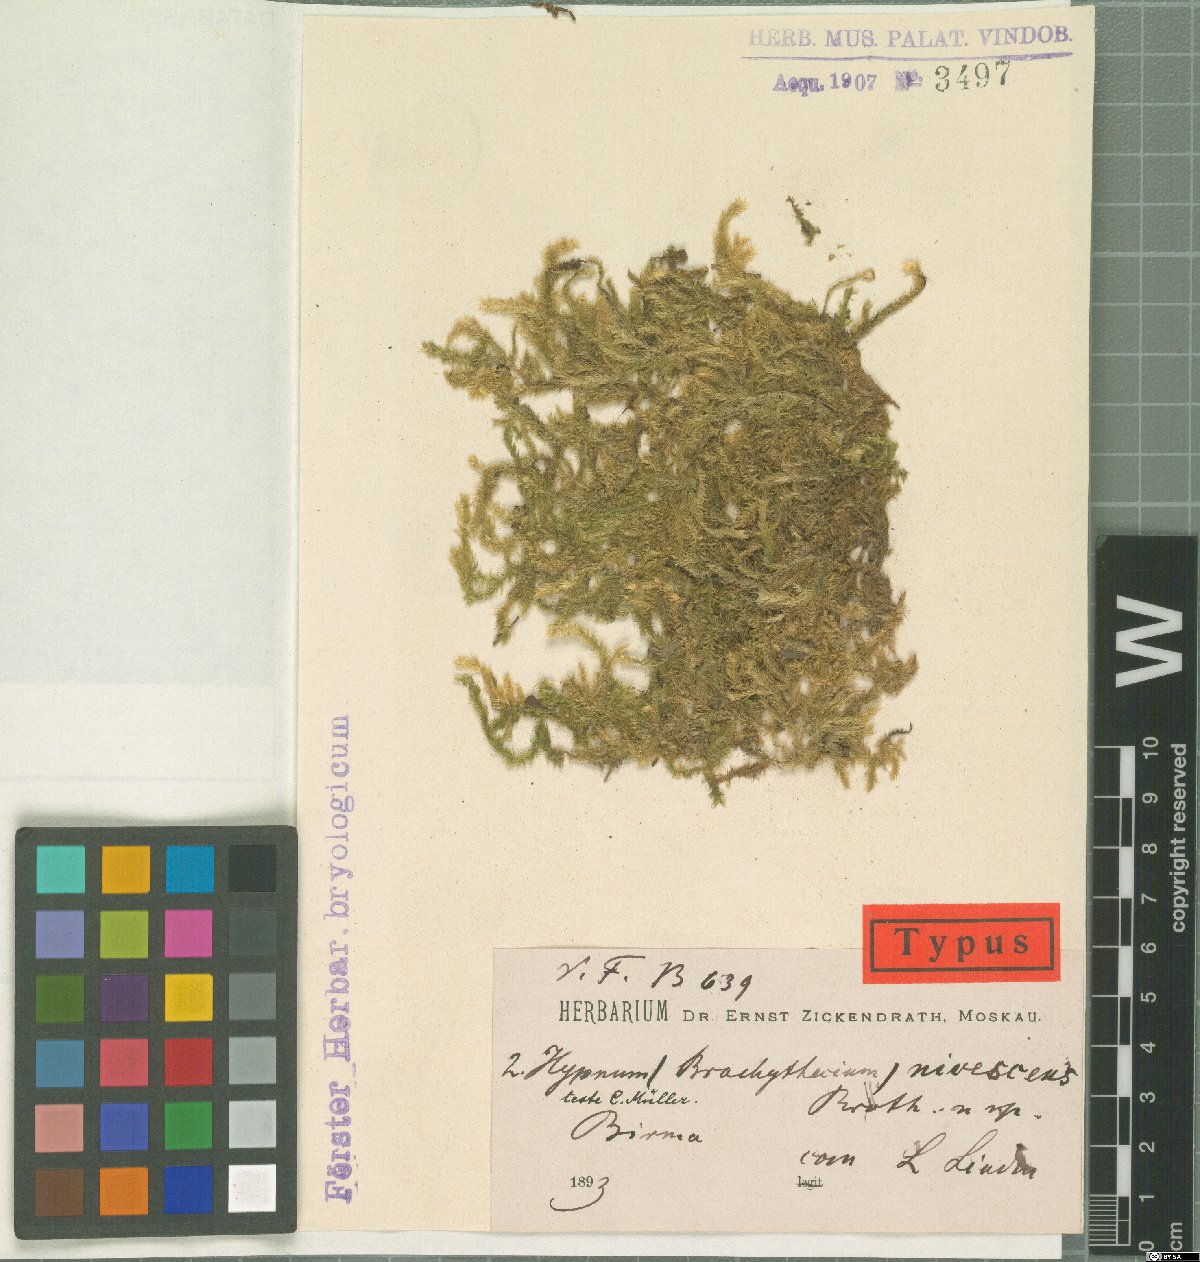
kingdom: Plantae
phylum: Bryophyta
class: Bryopsida
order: Hypnales
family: Brachytheciaceae
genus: Brachythecium
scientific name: Brachythecium rutabulum
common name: Rough-stalked feather-moss
